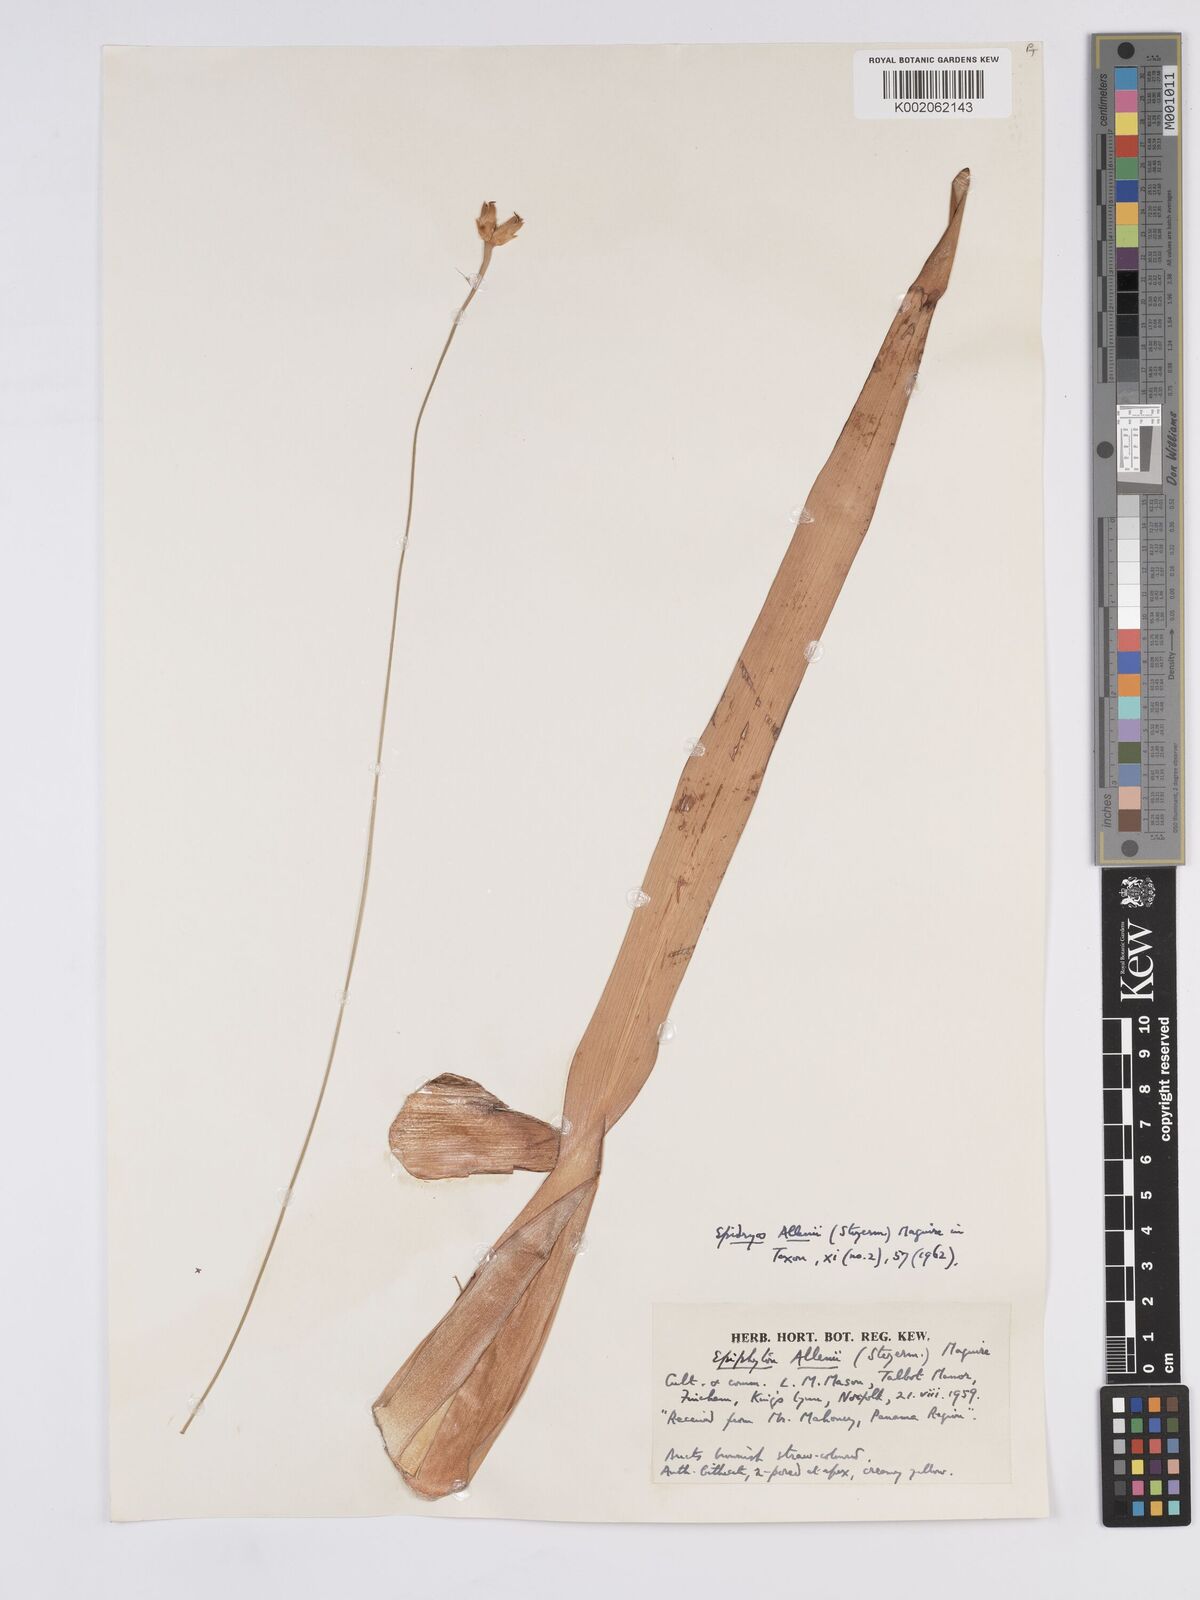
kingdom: Plantae
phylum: Tracheophyta
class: Liliopsida
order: Poales
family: Rapateaceae
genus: Epidryos
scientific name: Epidryos allenii
